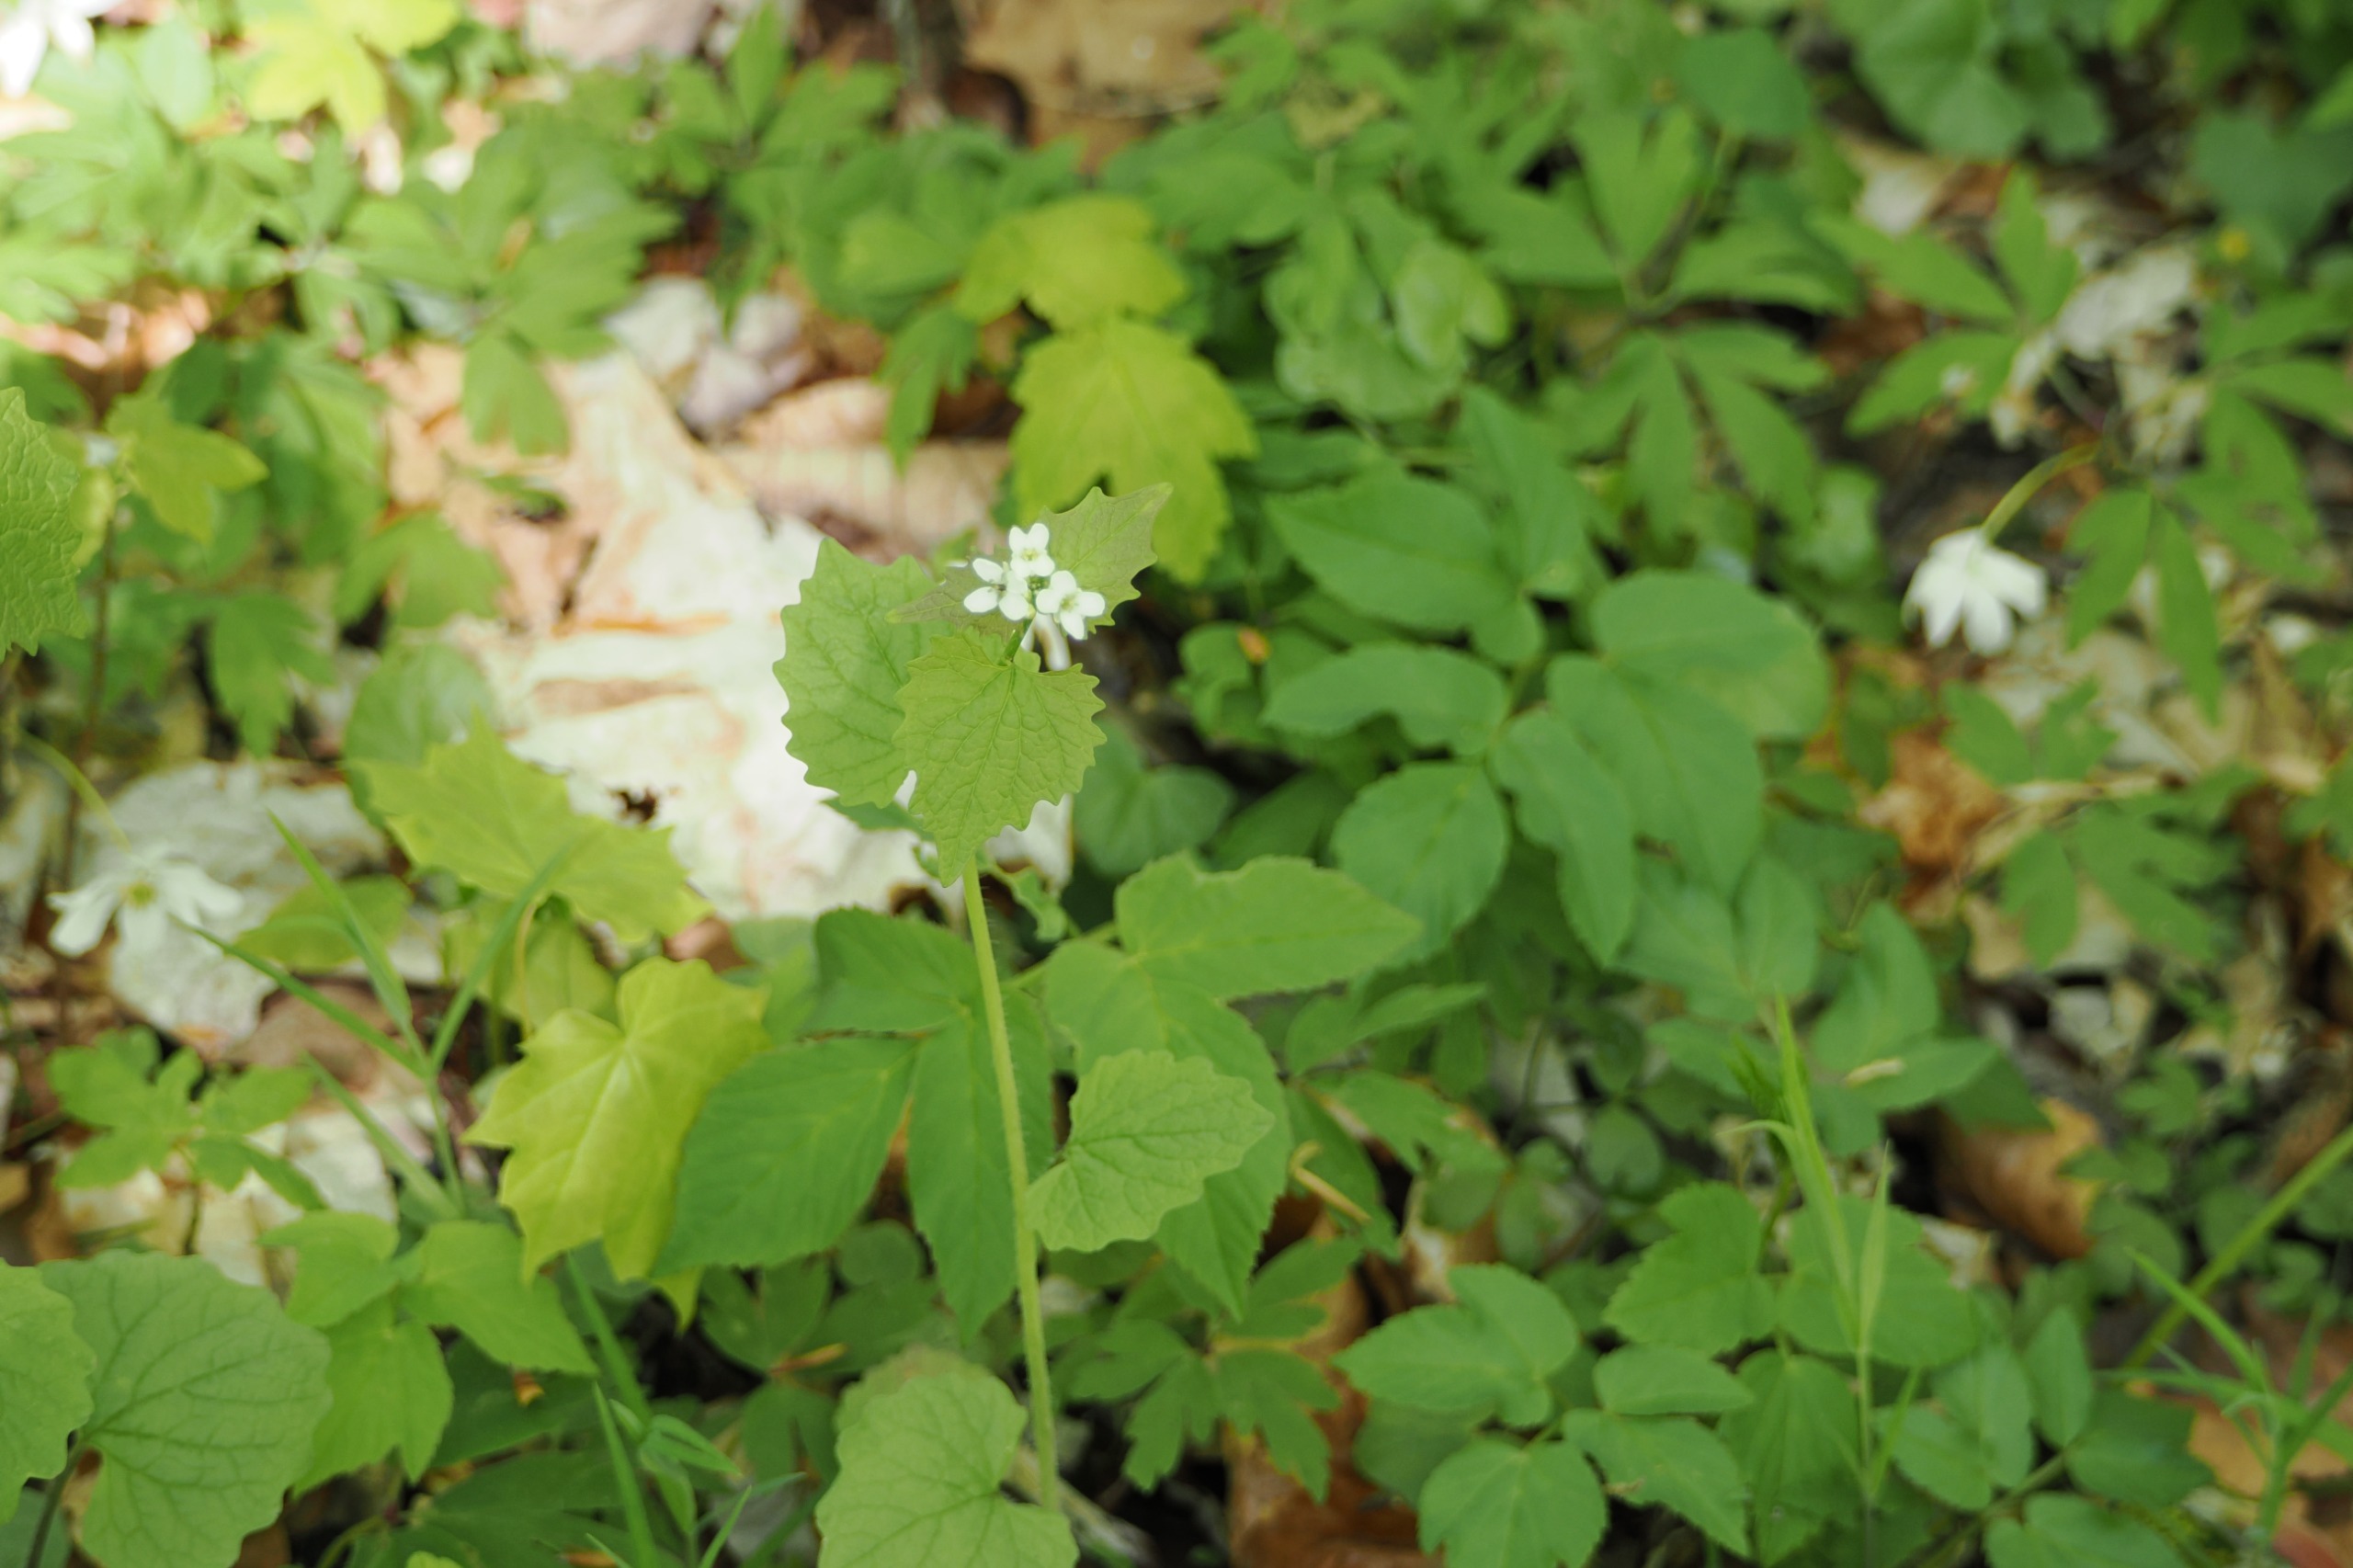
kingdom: Plantae
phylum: Tracheophyta
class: Magnoliopsida
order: Brassicales
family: Brassicaceae
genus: Alliaria
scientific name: Alliaria petiolata
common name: Løgkarse
